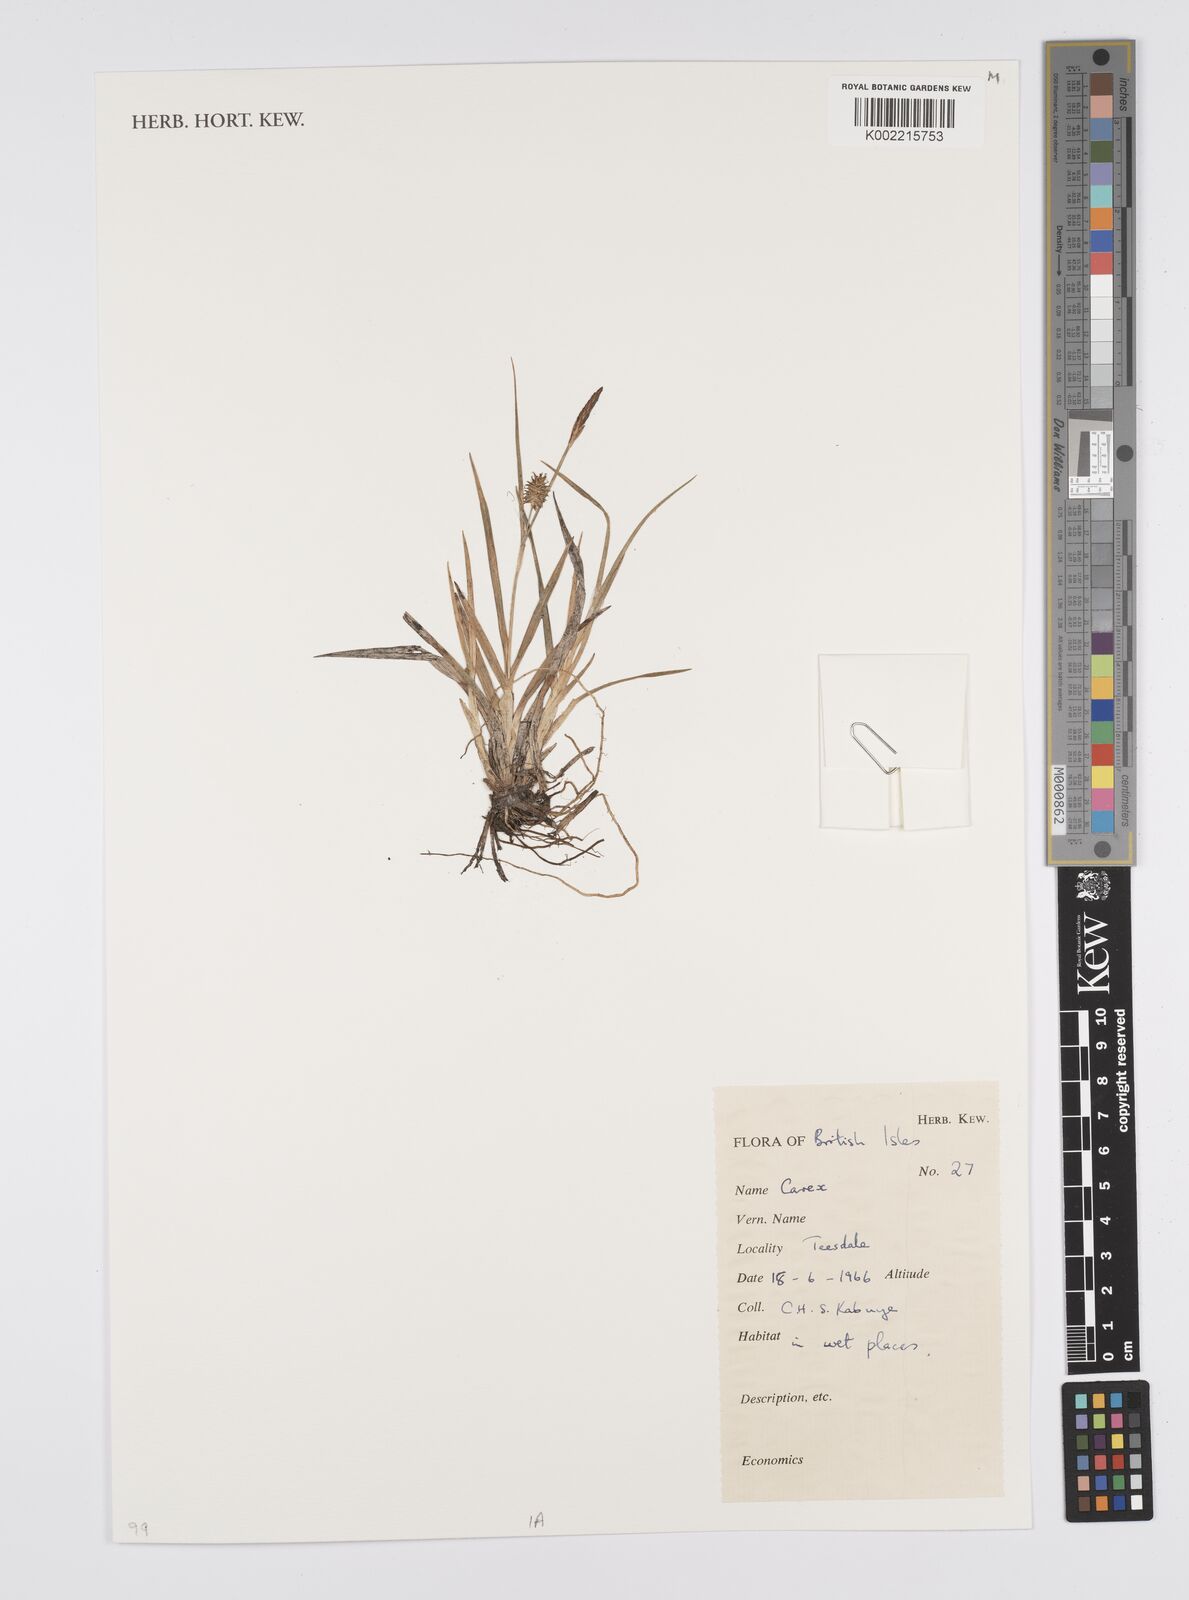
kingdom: Plantae
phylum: Tracheophyta
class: Liliopsida
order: Poales
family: Cyperaceae
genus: Carex
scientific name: Carex
